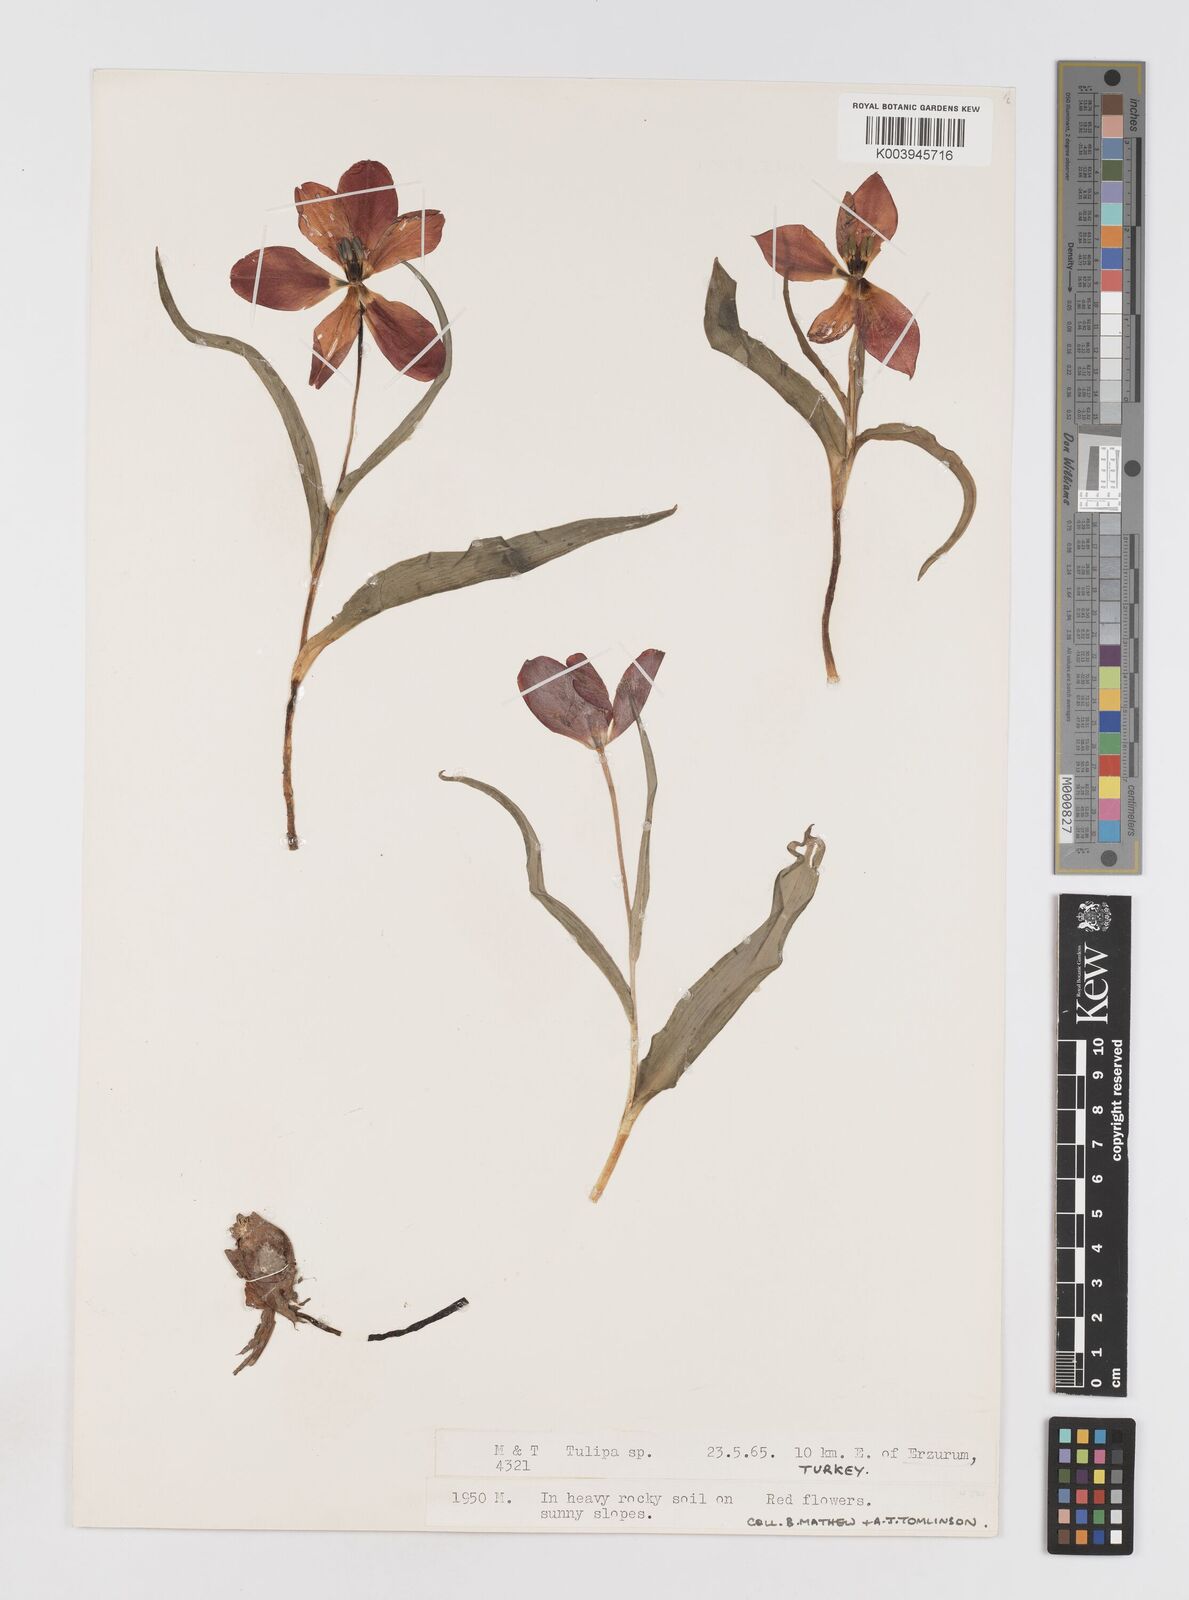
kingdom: Plantae
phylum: Tracheophyta
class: Liliopsida
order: Liliales
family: Liliaceae
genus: Tulipa
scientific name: Tulipa armena
